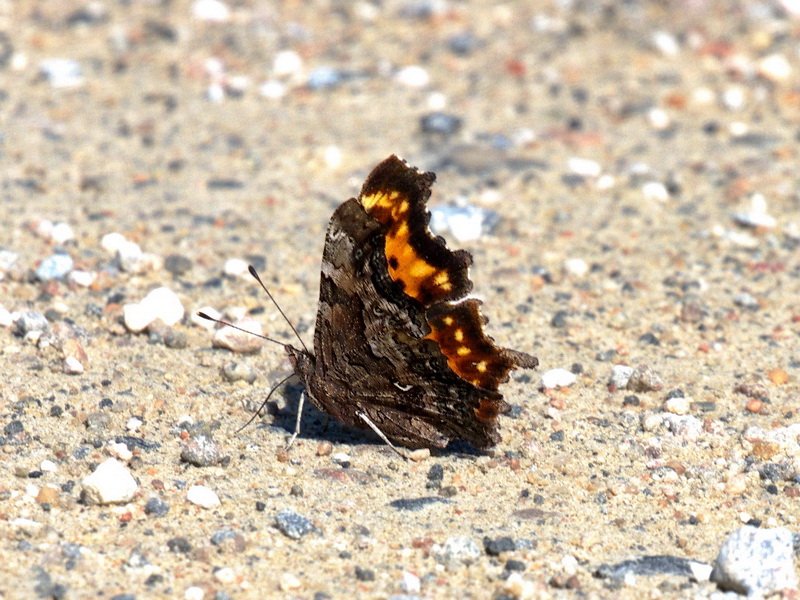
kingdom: Animalia
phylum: Arthropoda
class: Insecta
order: Lepidoptera
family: Nymphalidae
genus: Polygonia
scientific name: Polygonia faunus
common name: Green Comma
